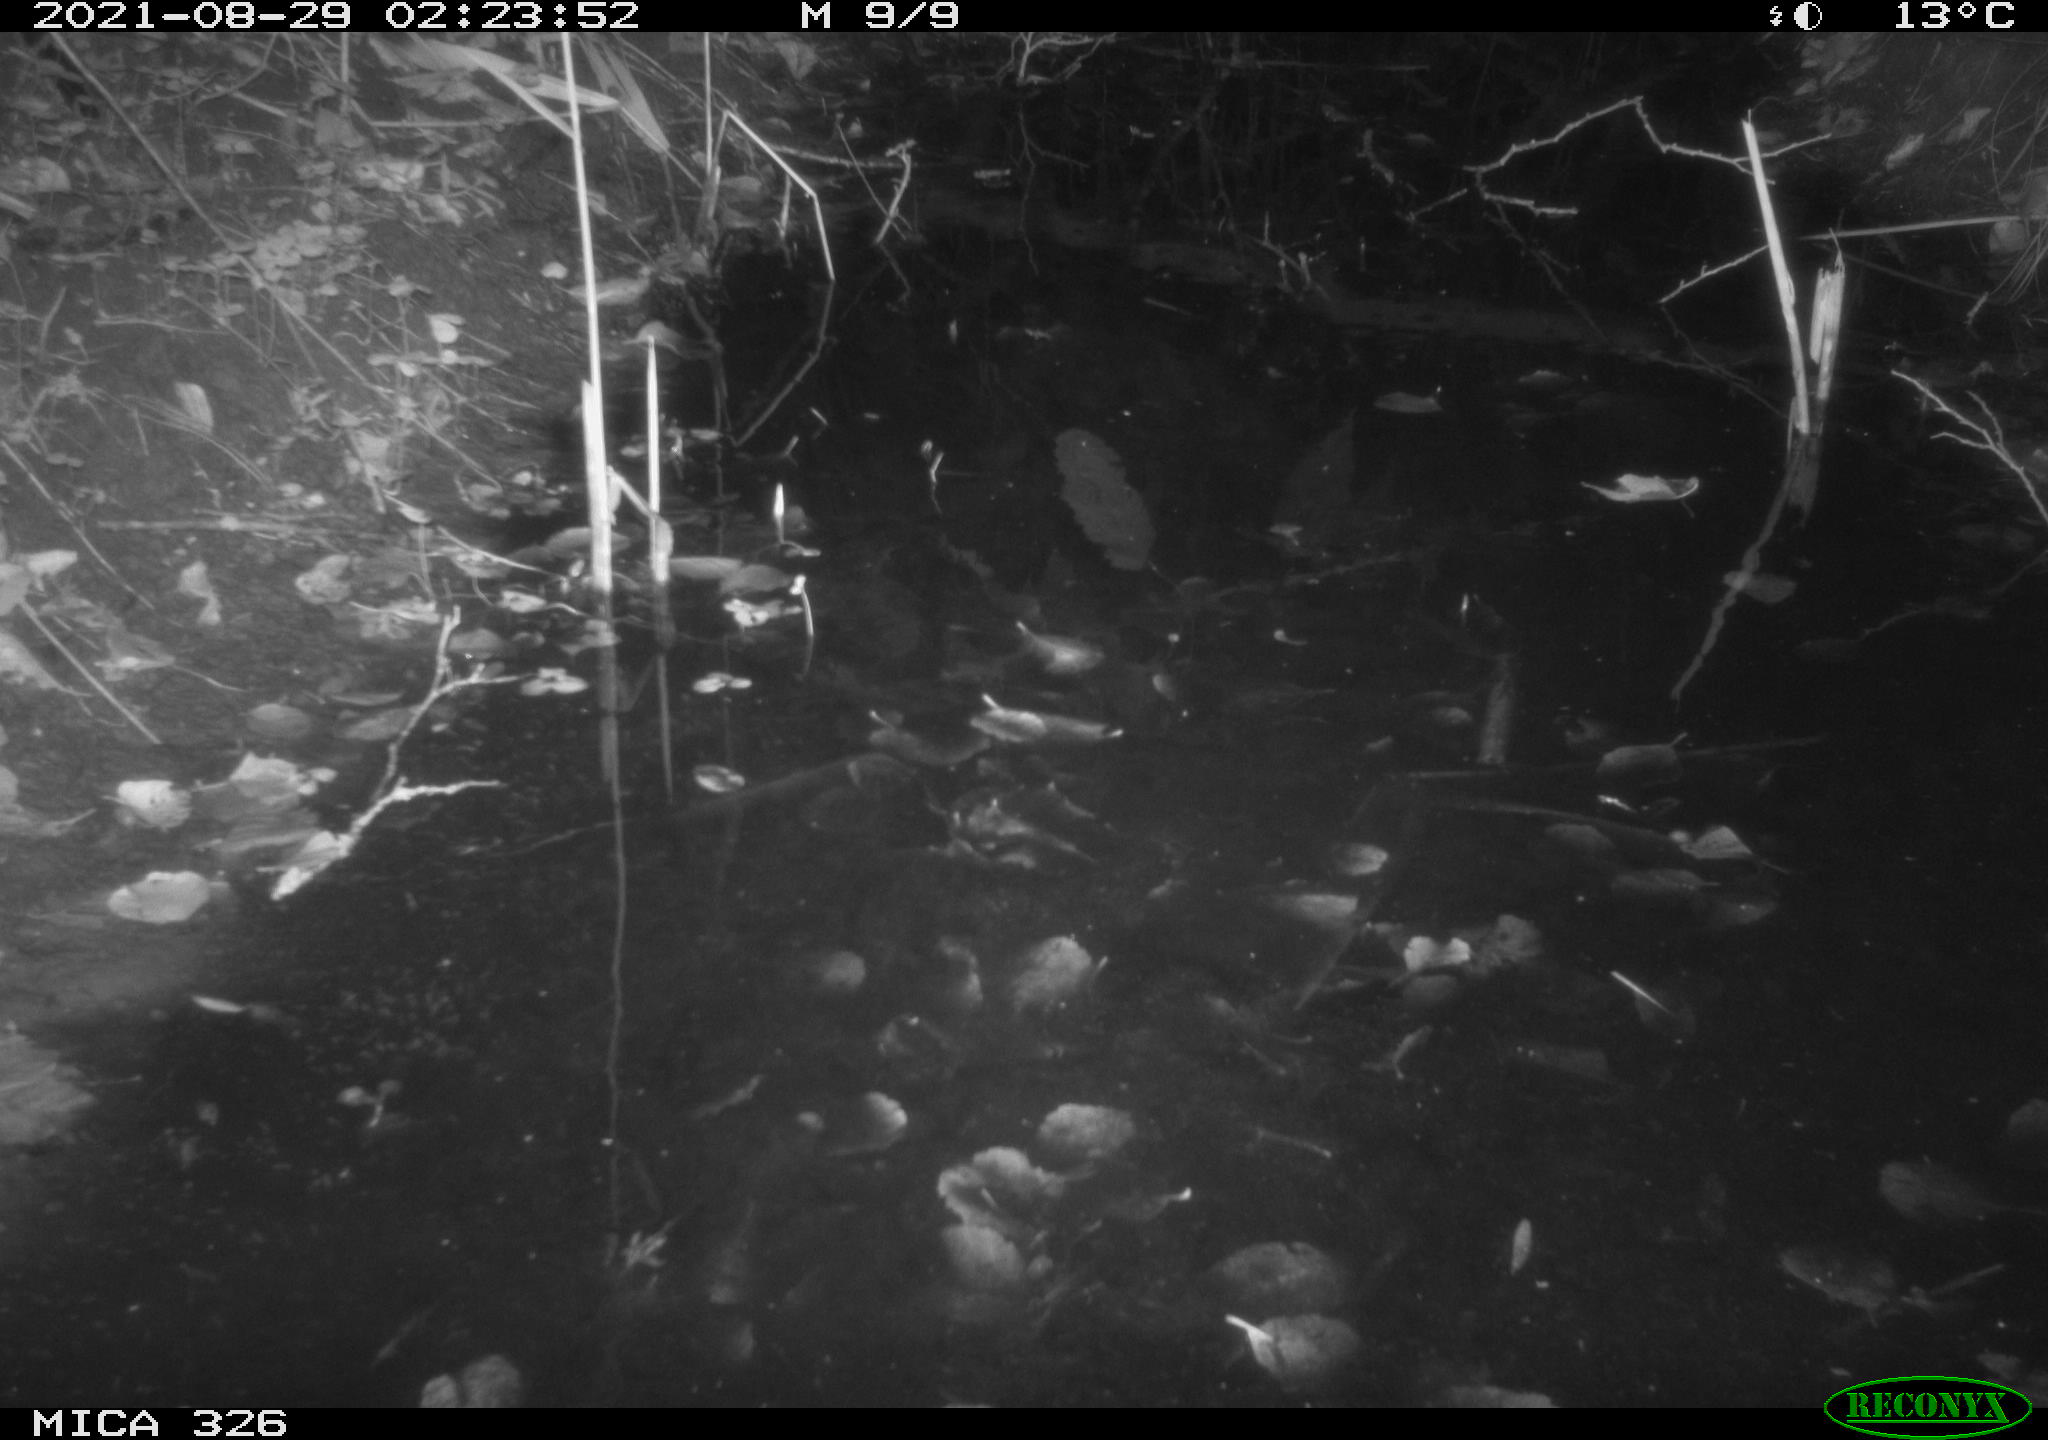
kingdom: Animalia
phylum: Chordata
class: Mammalia
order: Rodentia
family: Myocastoridae
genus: Myocastor
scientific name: Myocastor coypus
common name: Coypu
